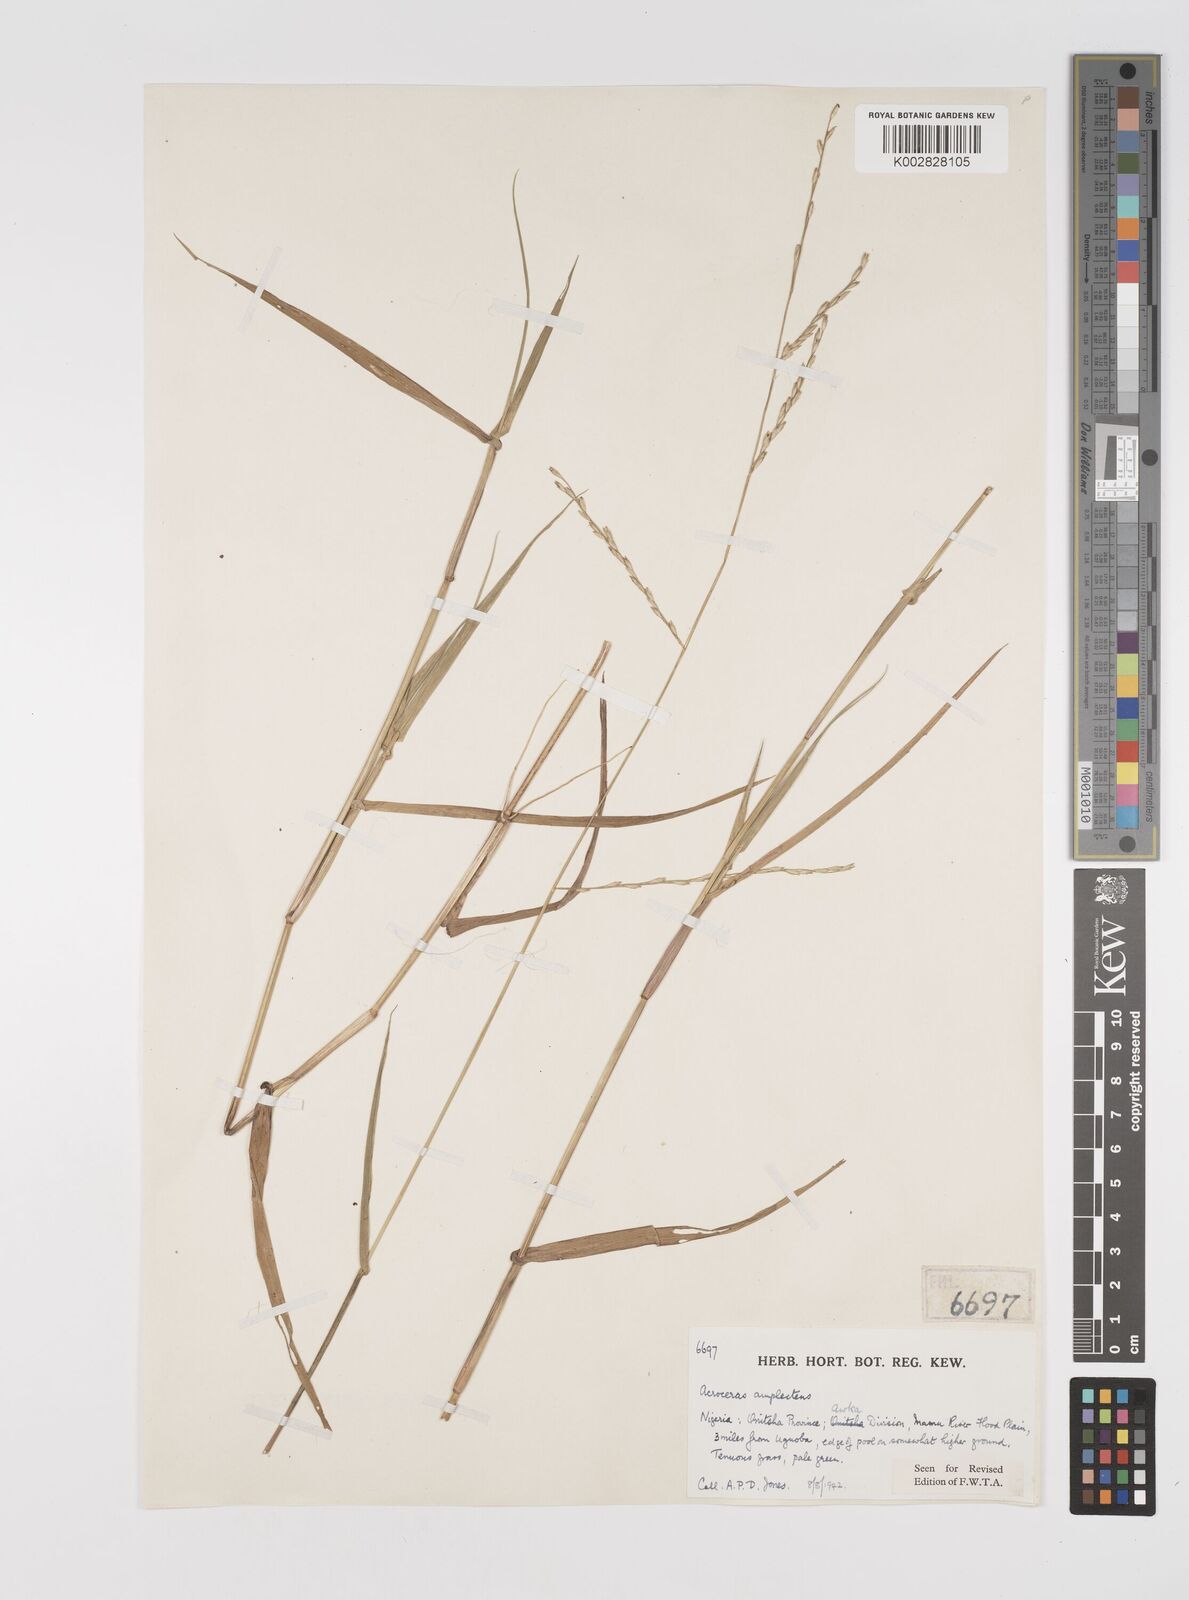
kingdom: Plantae
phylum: Tracheophyta
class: Liliopsida
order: Poales
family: Poaceae
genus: Acroceras
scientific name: Acroceras amplectens
